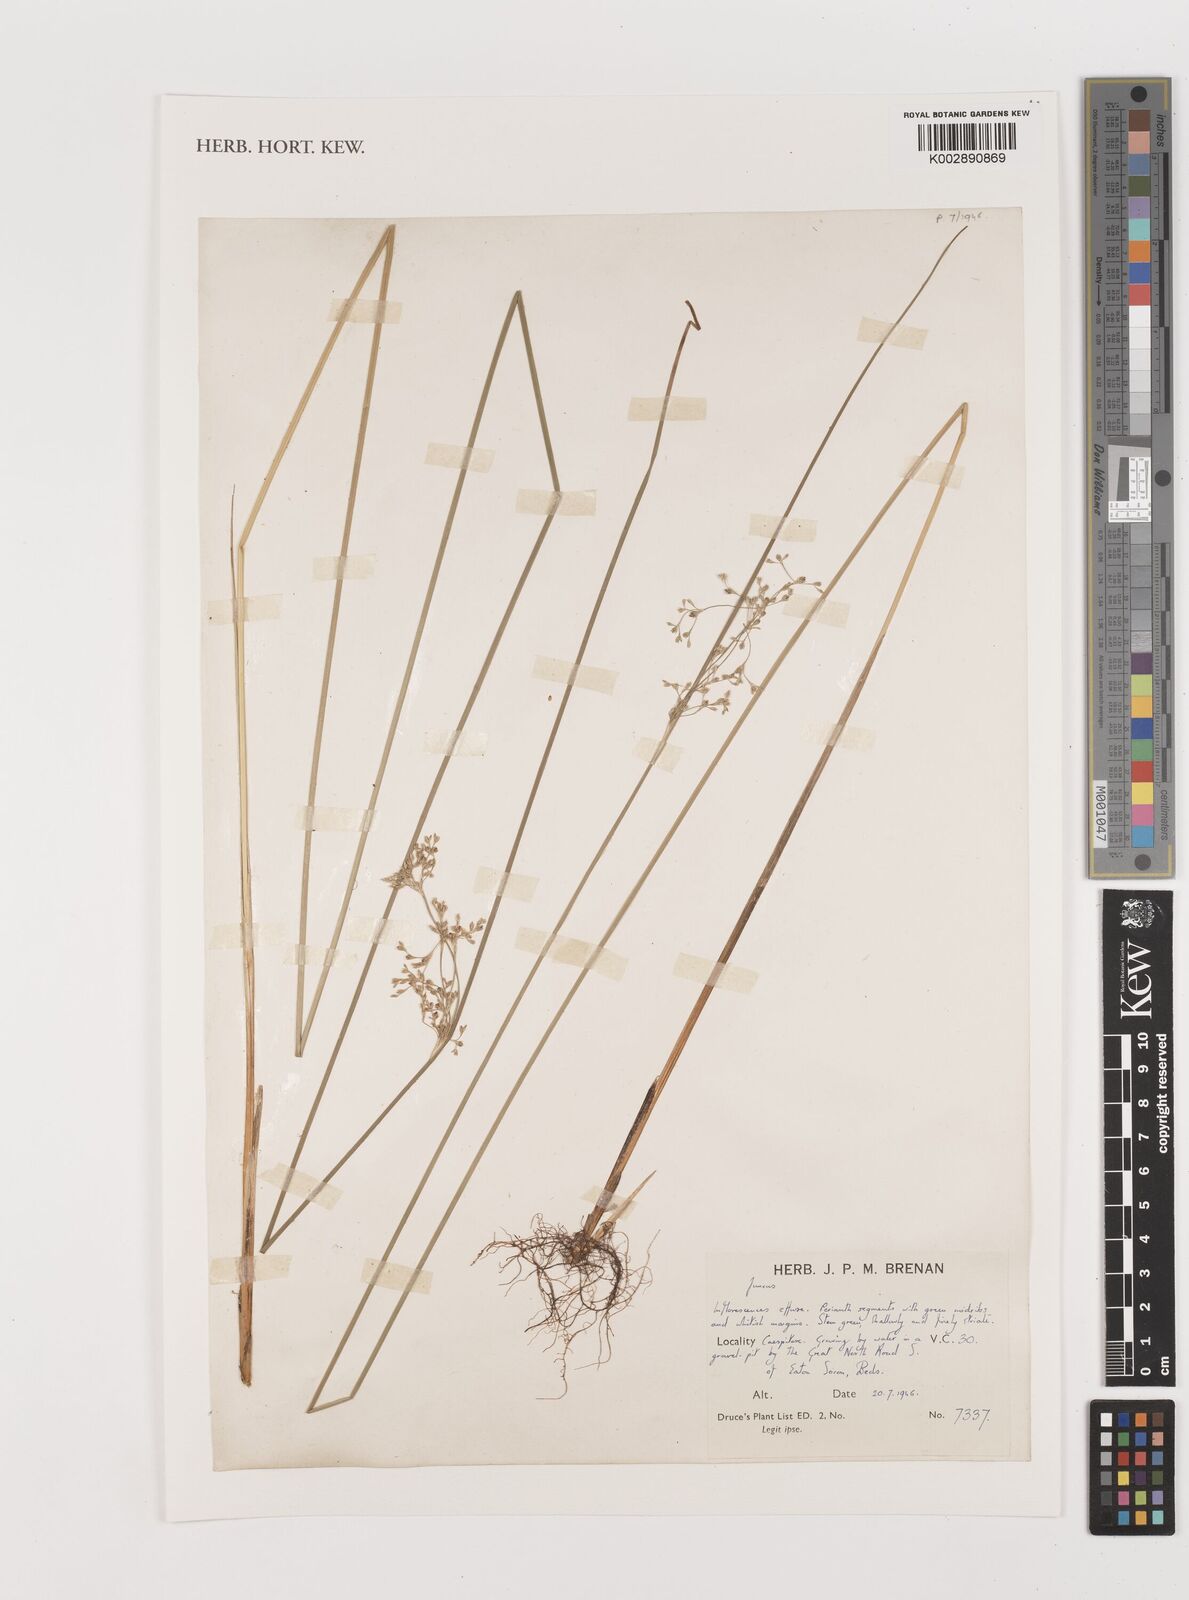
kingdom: Plantae
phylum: Tracheophyta
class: Liliopsida
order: Poales
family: Juncaceae
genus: Juncus
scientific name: Juncus
